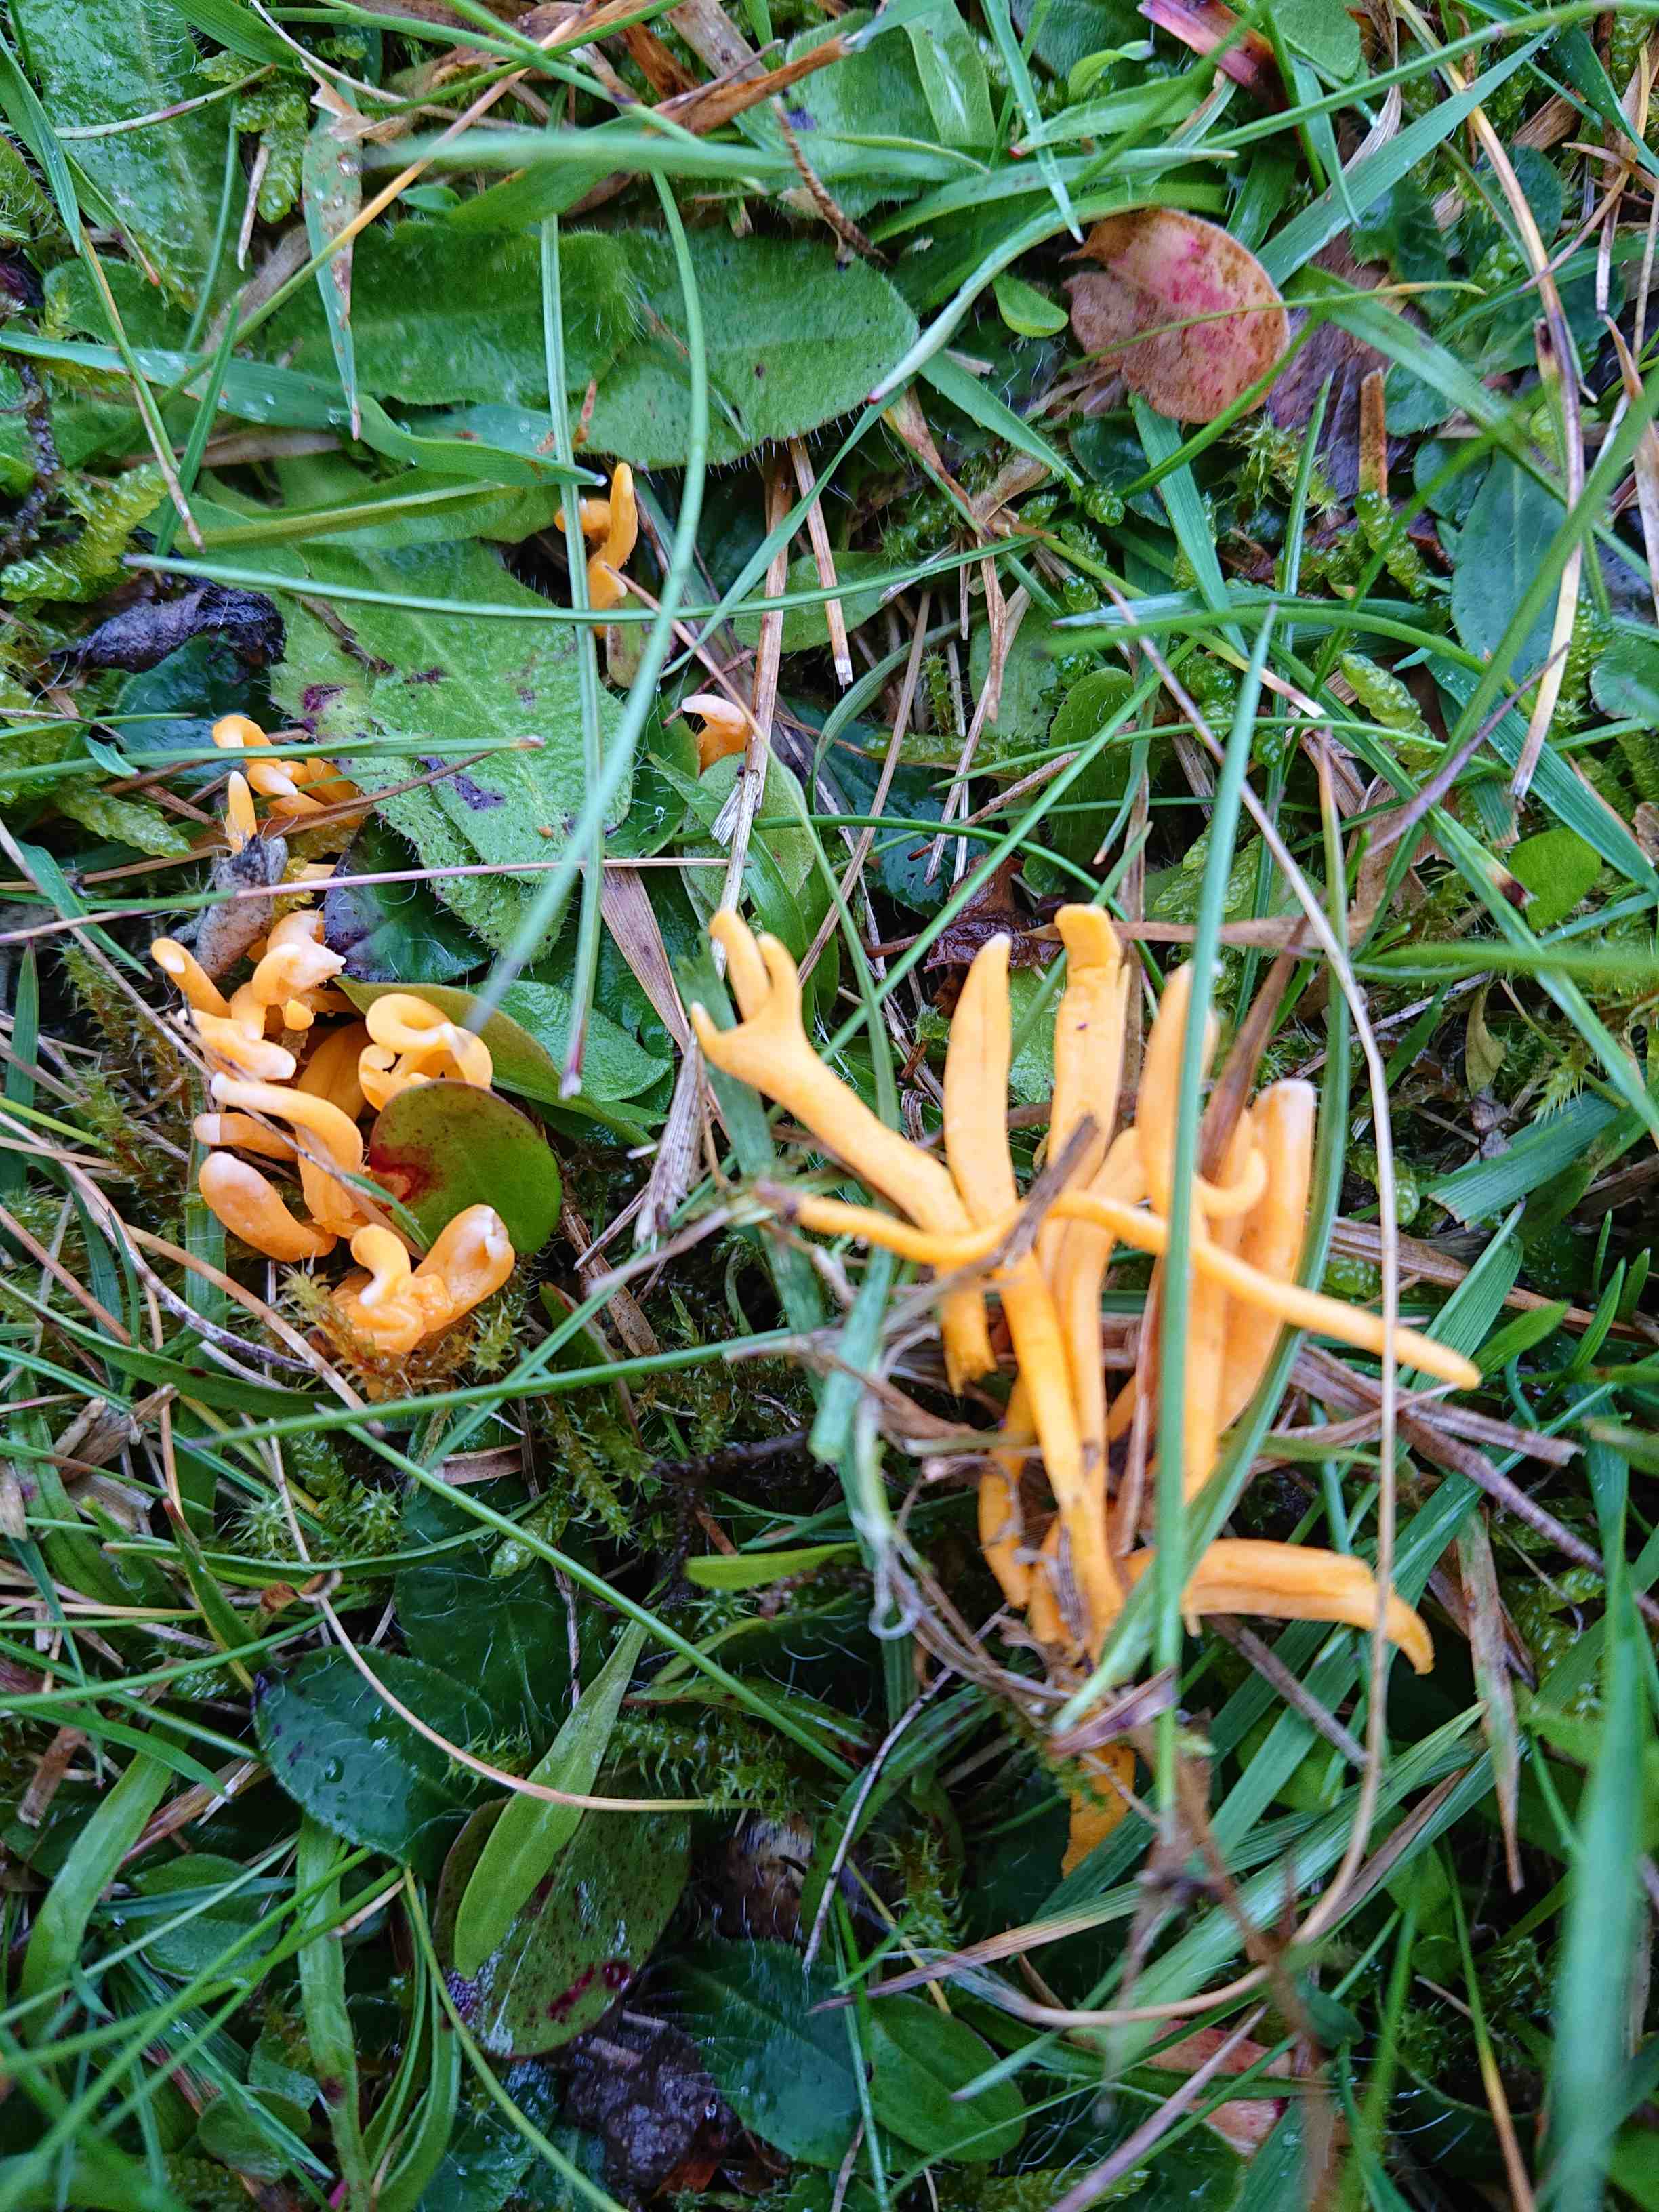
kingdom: Fungi
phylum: Basidiomycota
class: Agaricomycetes
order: Agaricales
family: Clavariaceae
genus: Clavulinopsis
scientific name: Clavulinopsis
